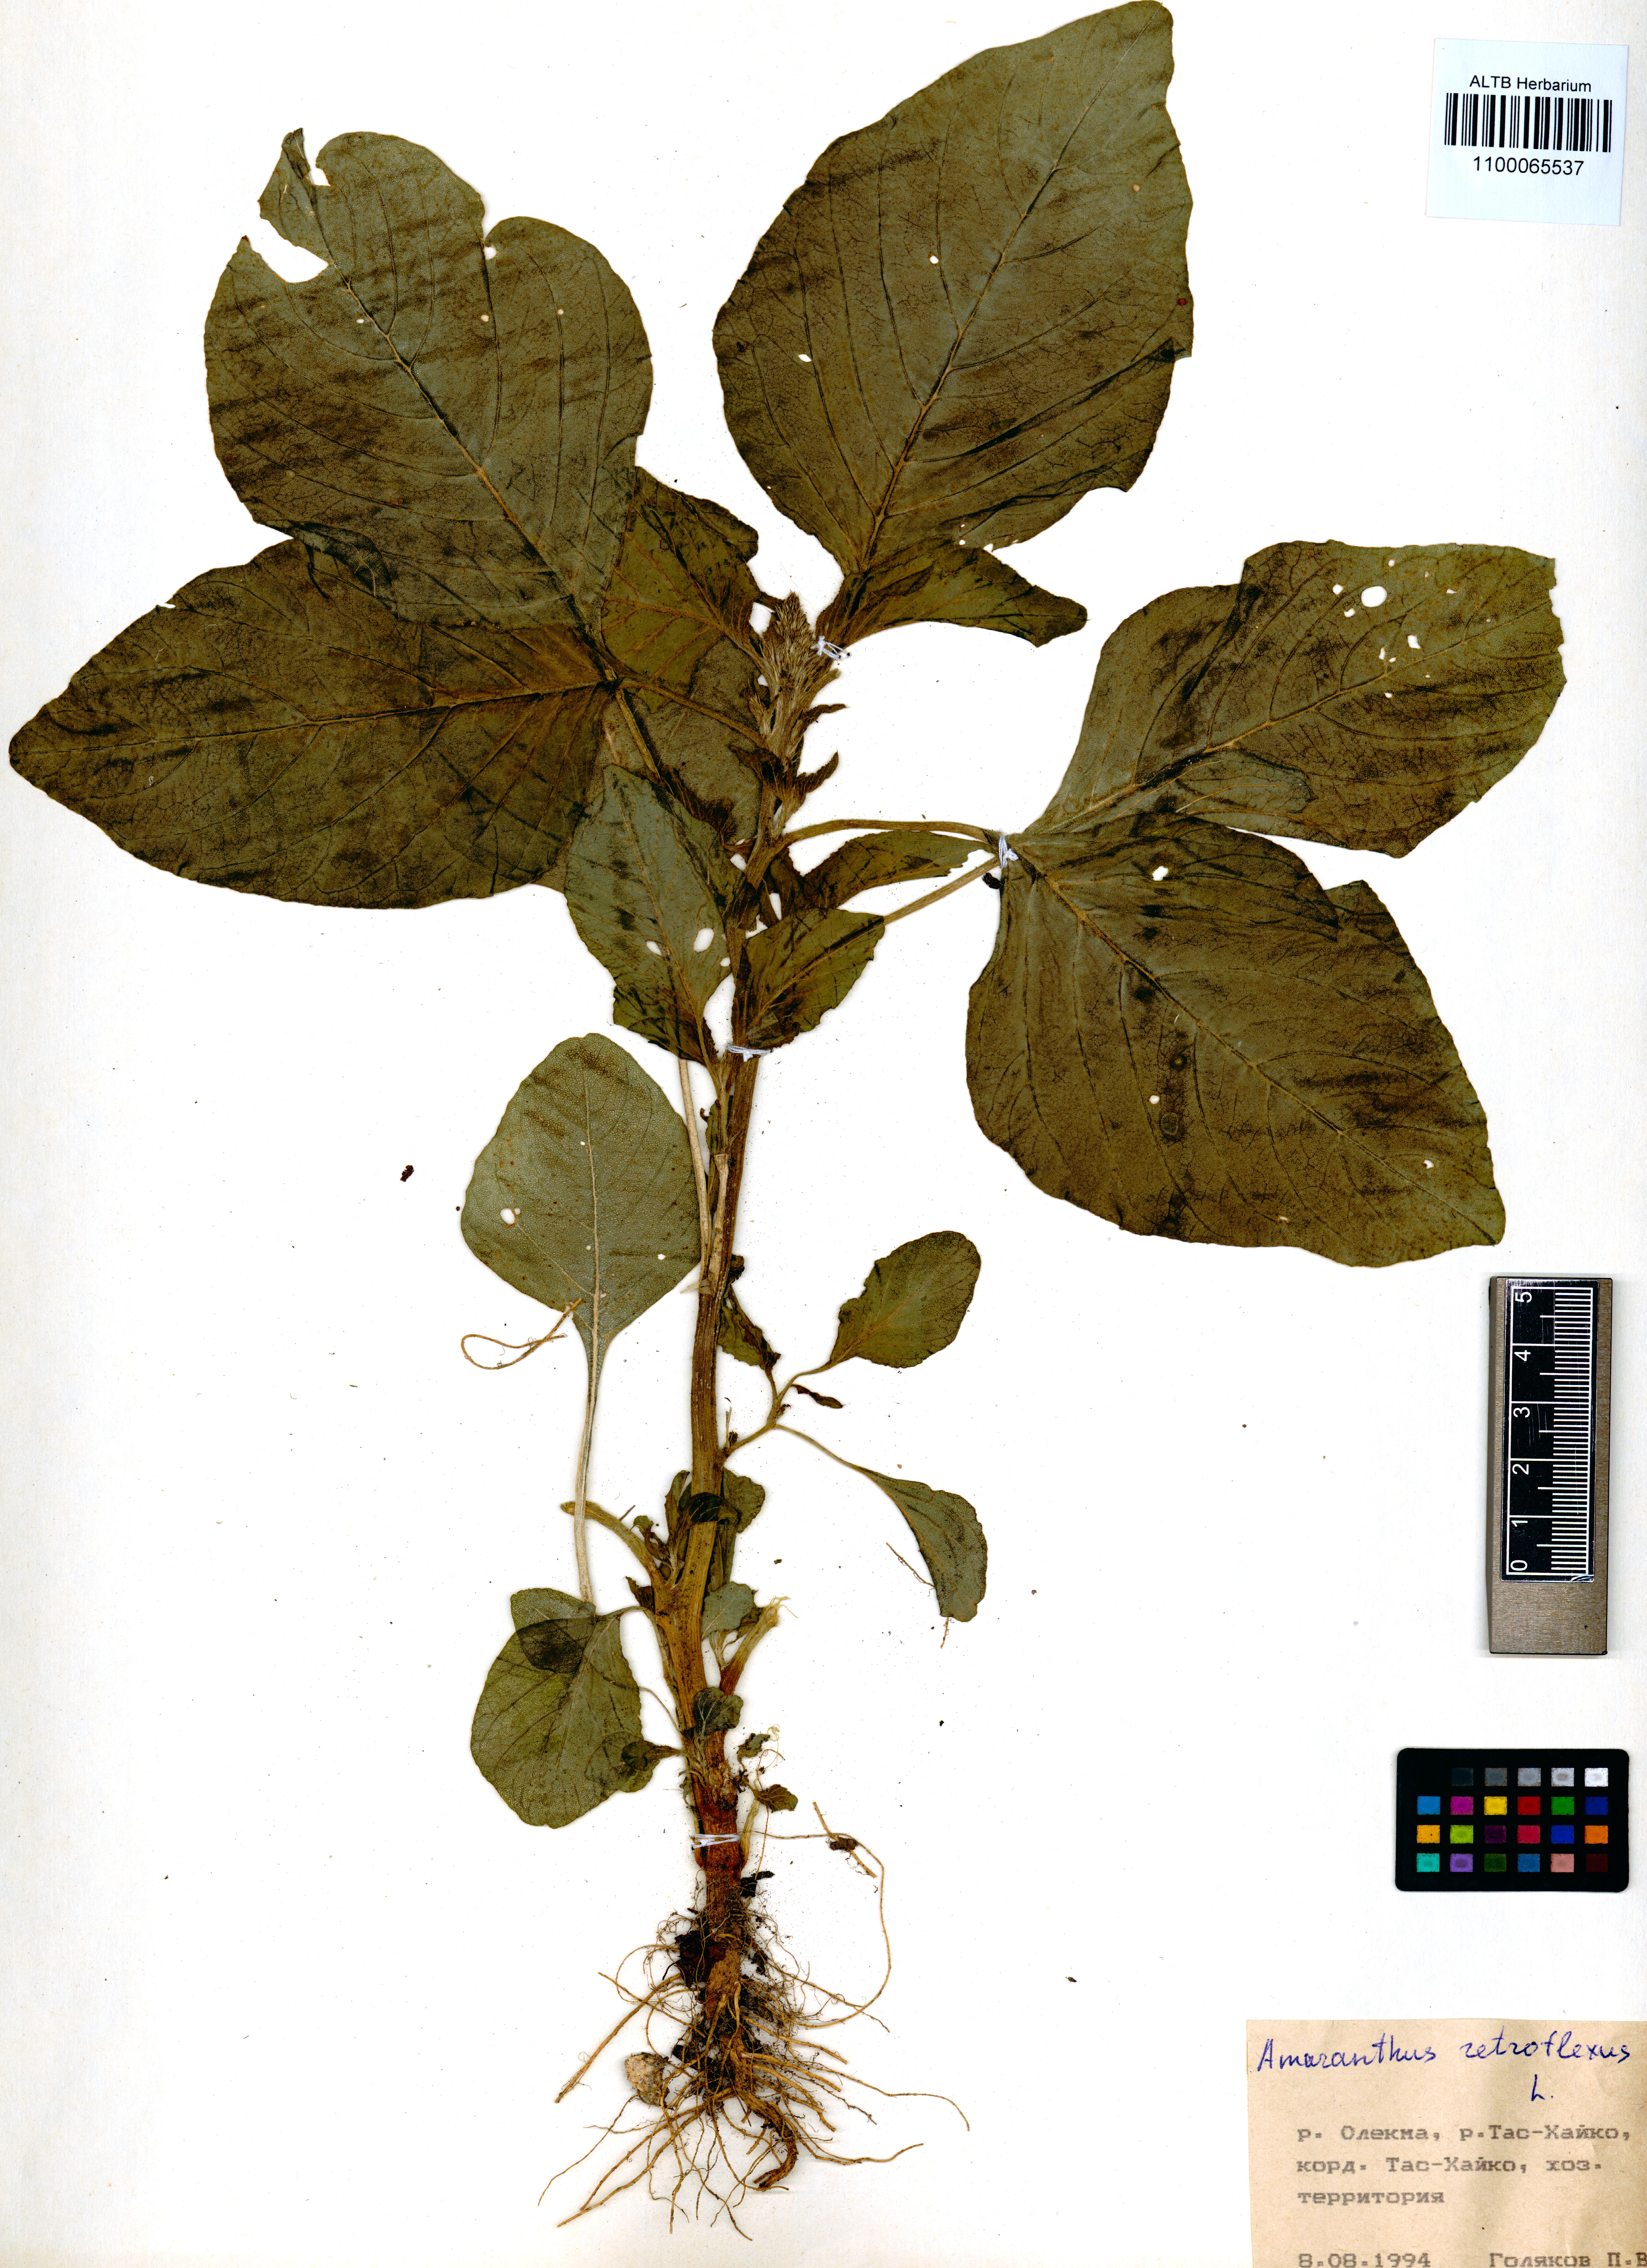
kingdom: Plantae
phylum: Tracheophyta
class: Magnoliopsida
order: Caryophyllales
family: Amaranthaceae
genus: Amaranthus
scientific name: Amaranthus retroflexus
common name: Redroot amaranth
